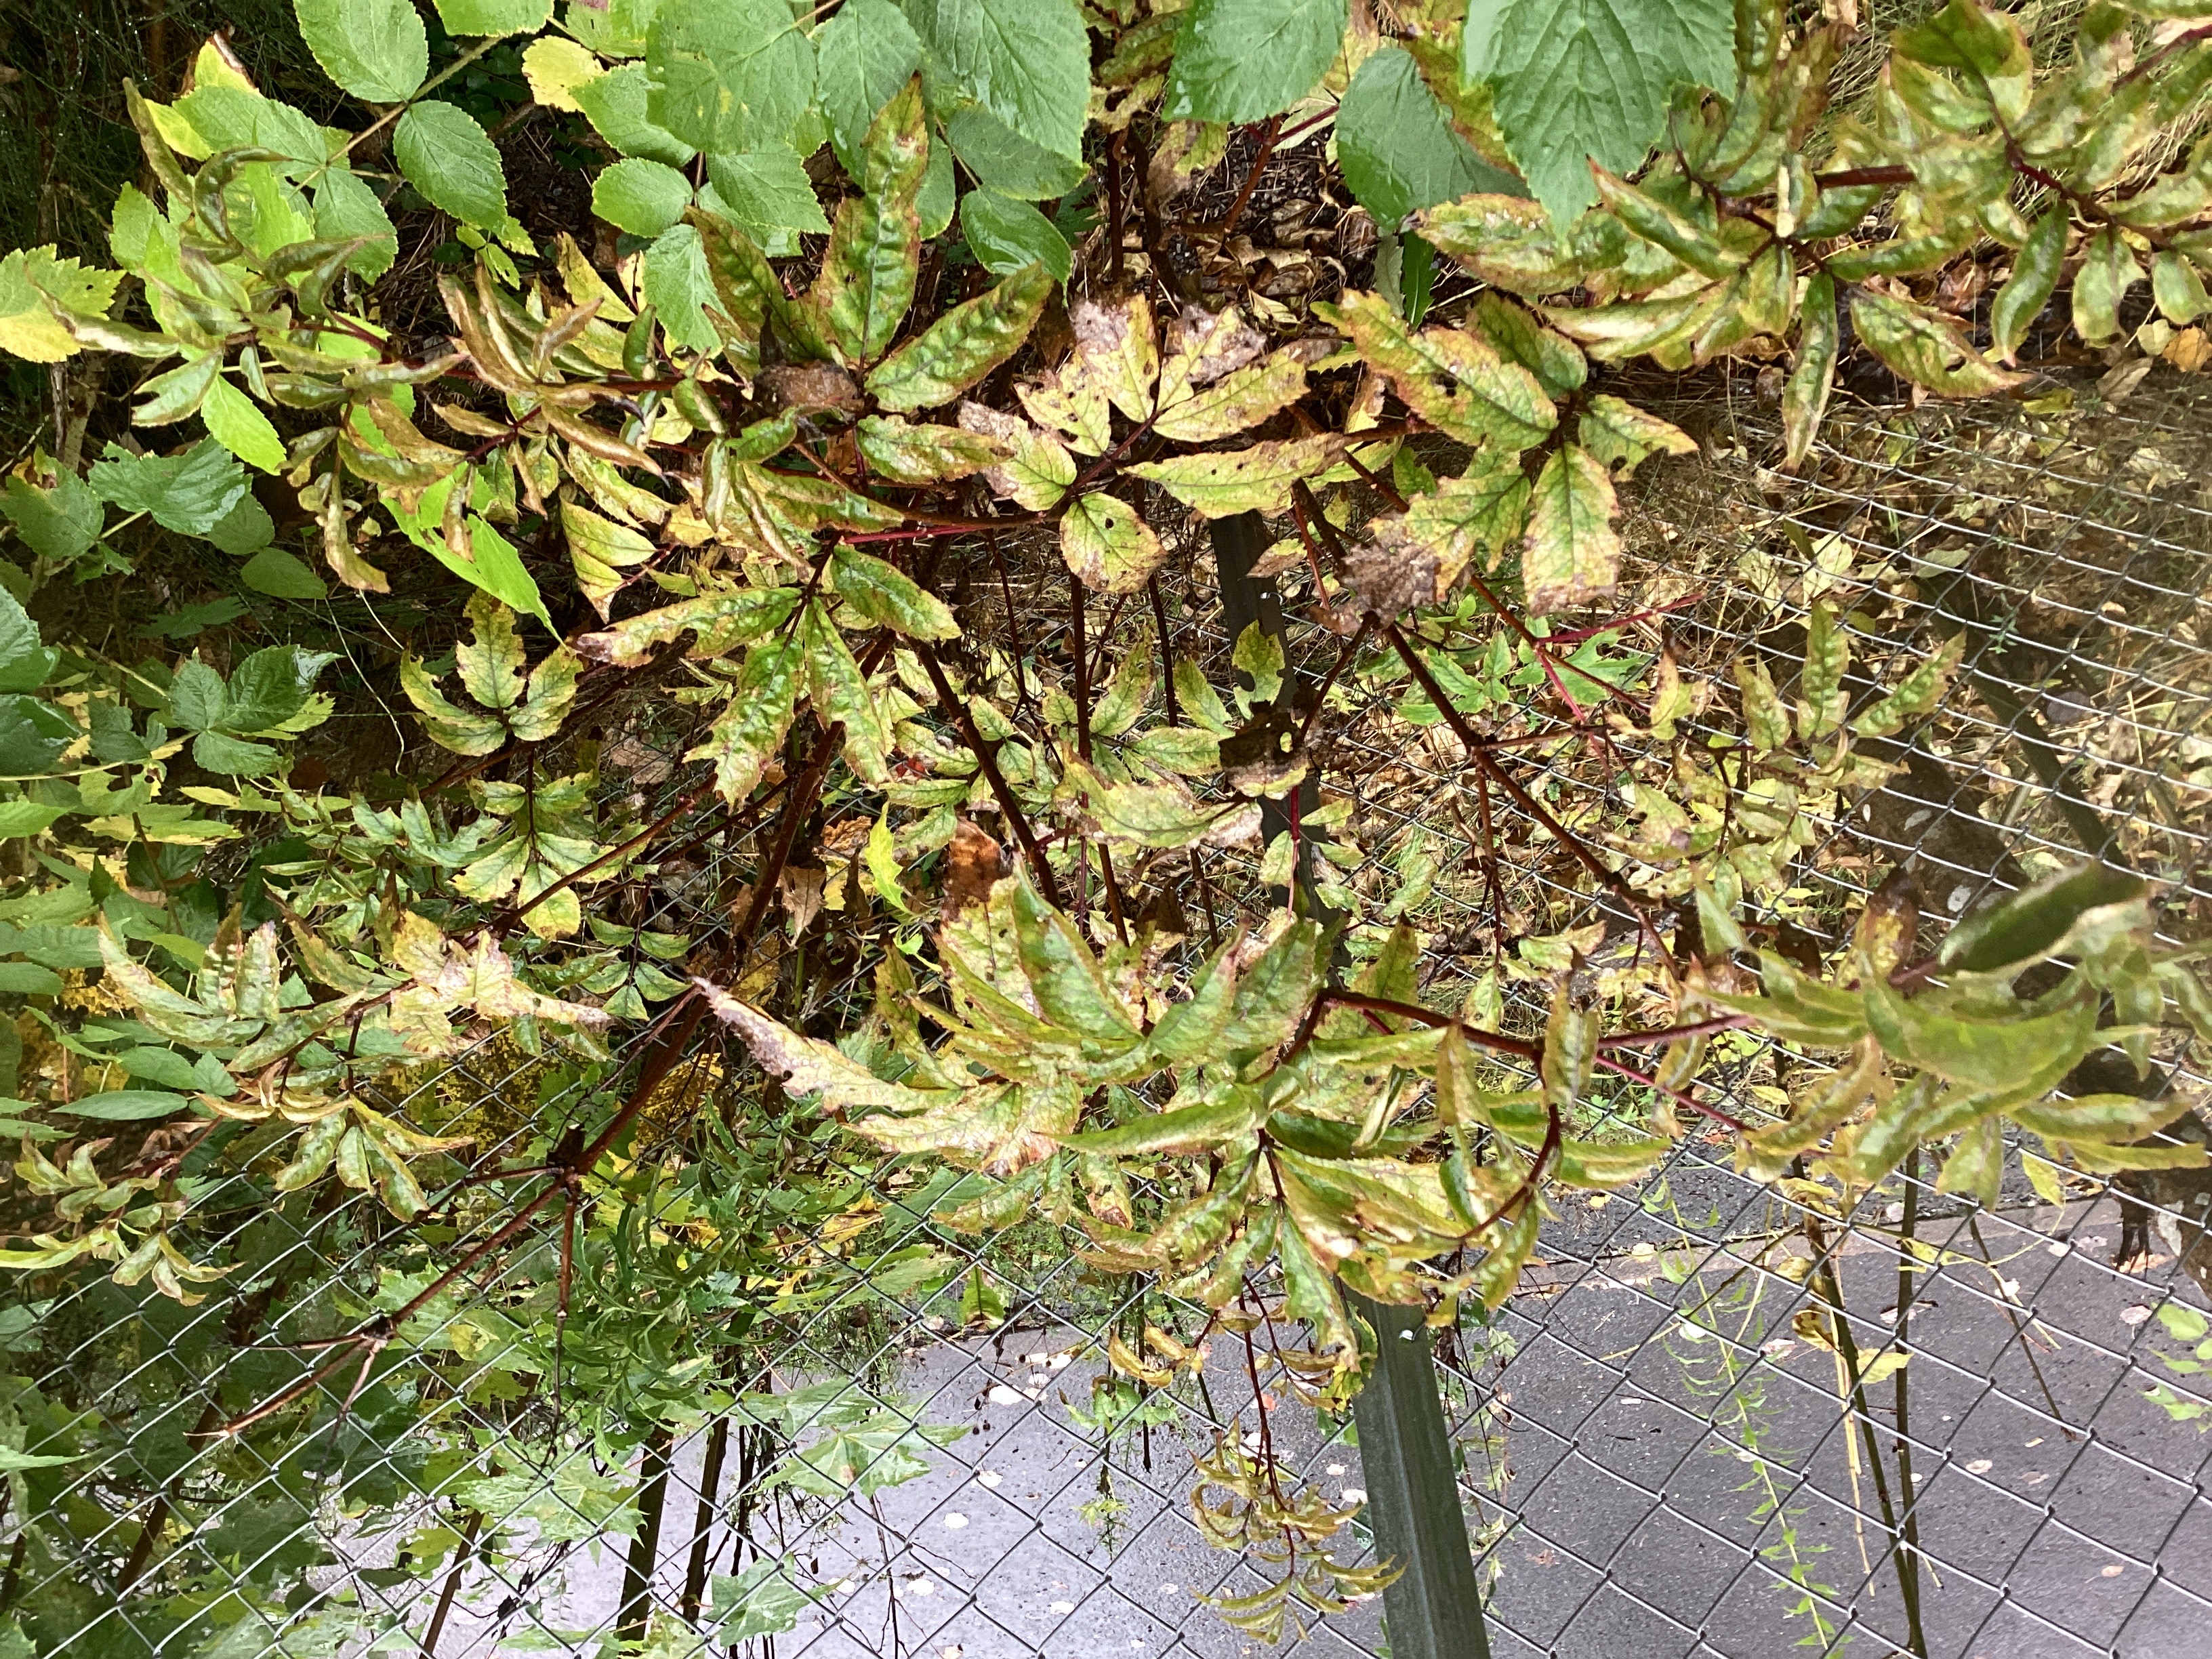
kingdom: Plantae
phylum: Tracheophyta
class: Magnoliopsida
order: Dipsacales
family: Viburnaceae
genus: Sambucus
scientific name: Sambucus racemosa
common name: rødhyll
